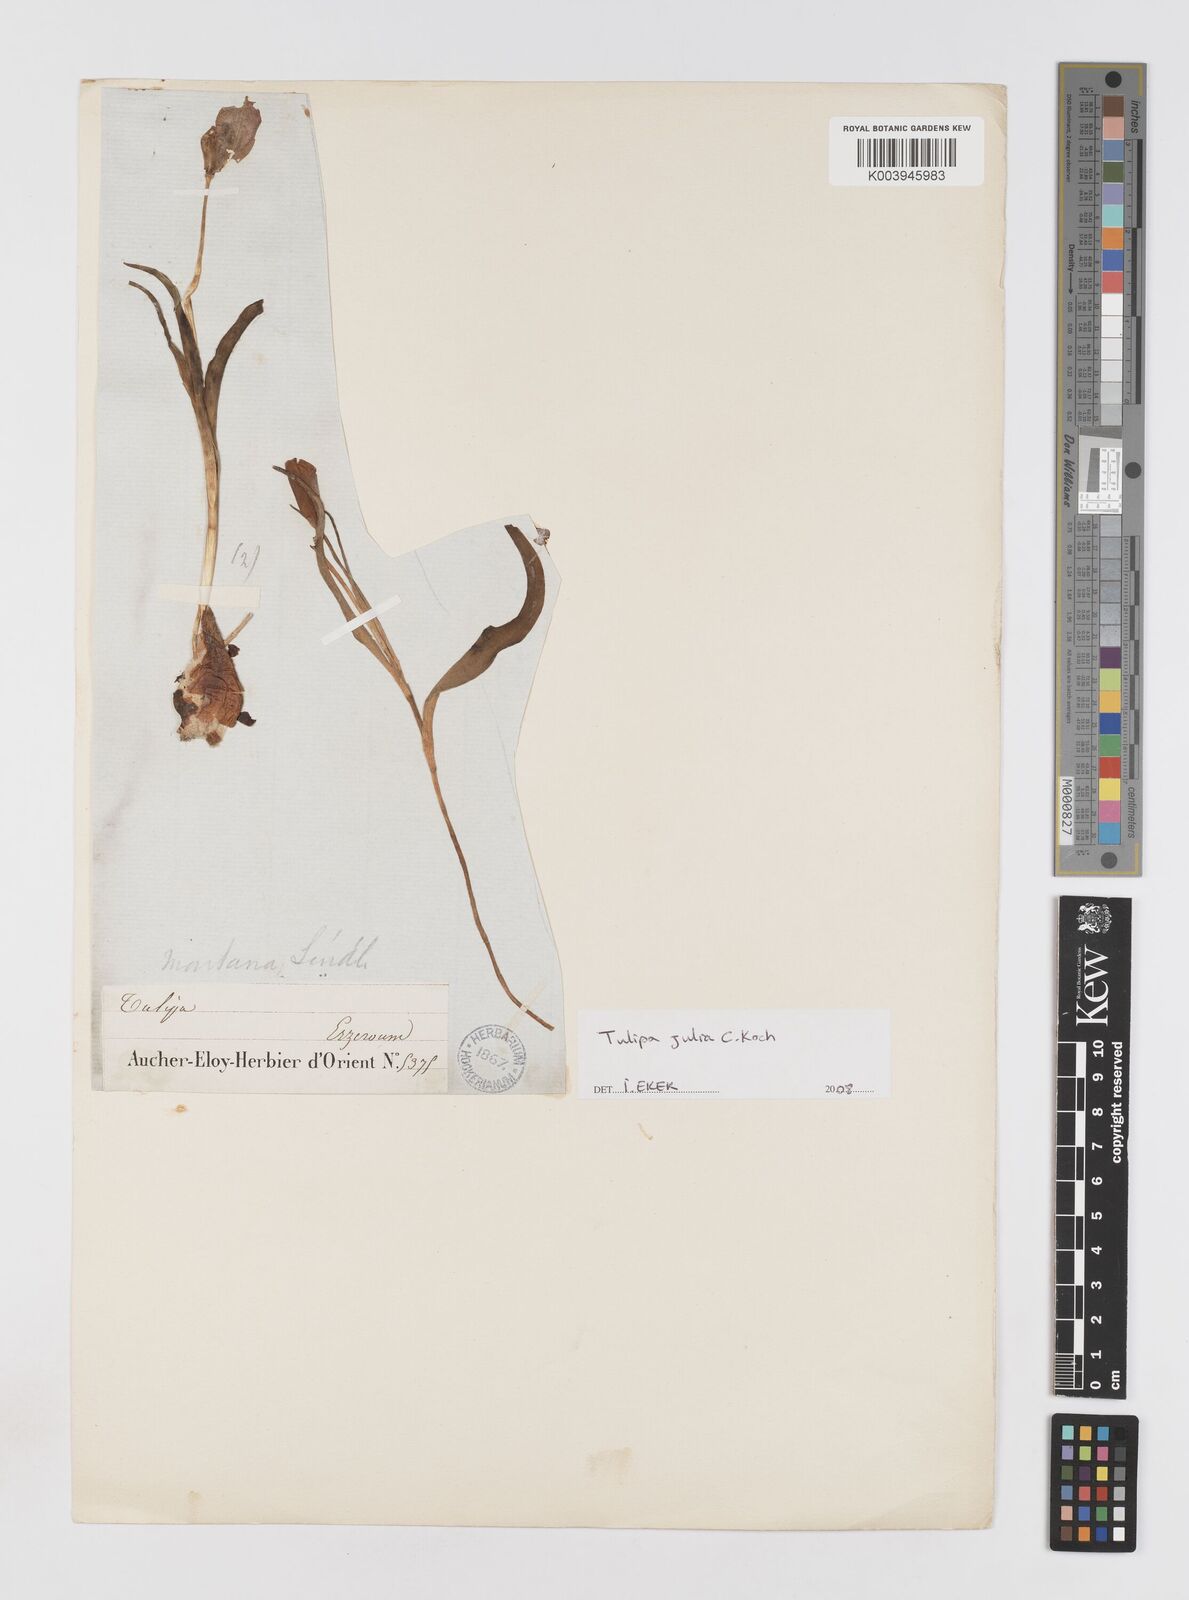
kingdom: Plantae
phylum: Tracheophyta
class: Liliopsida
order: Liliales
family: Liliaceae
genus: Tulipa
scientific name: Tulipa julia
